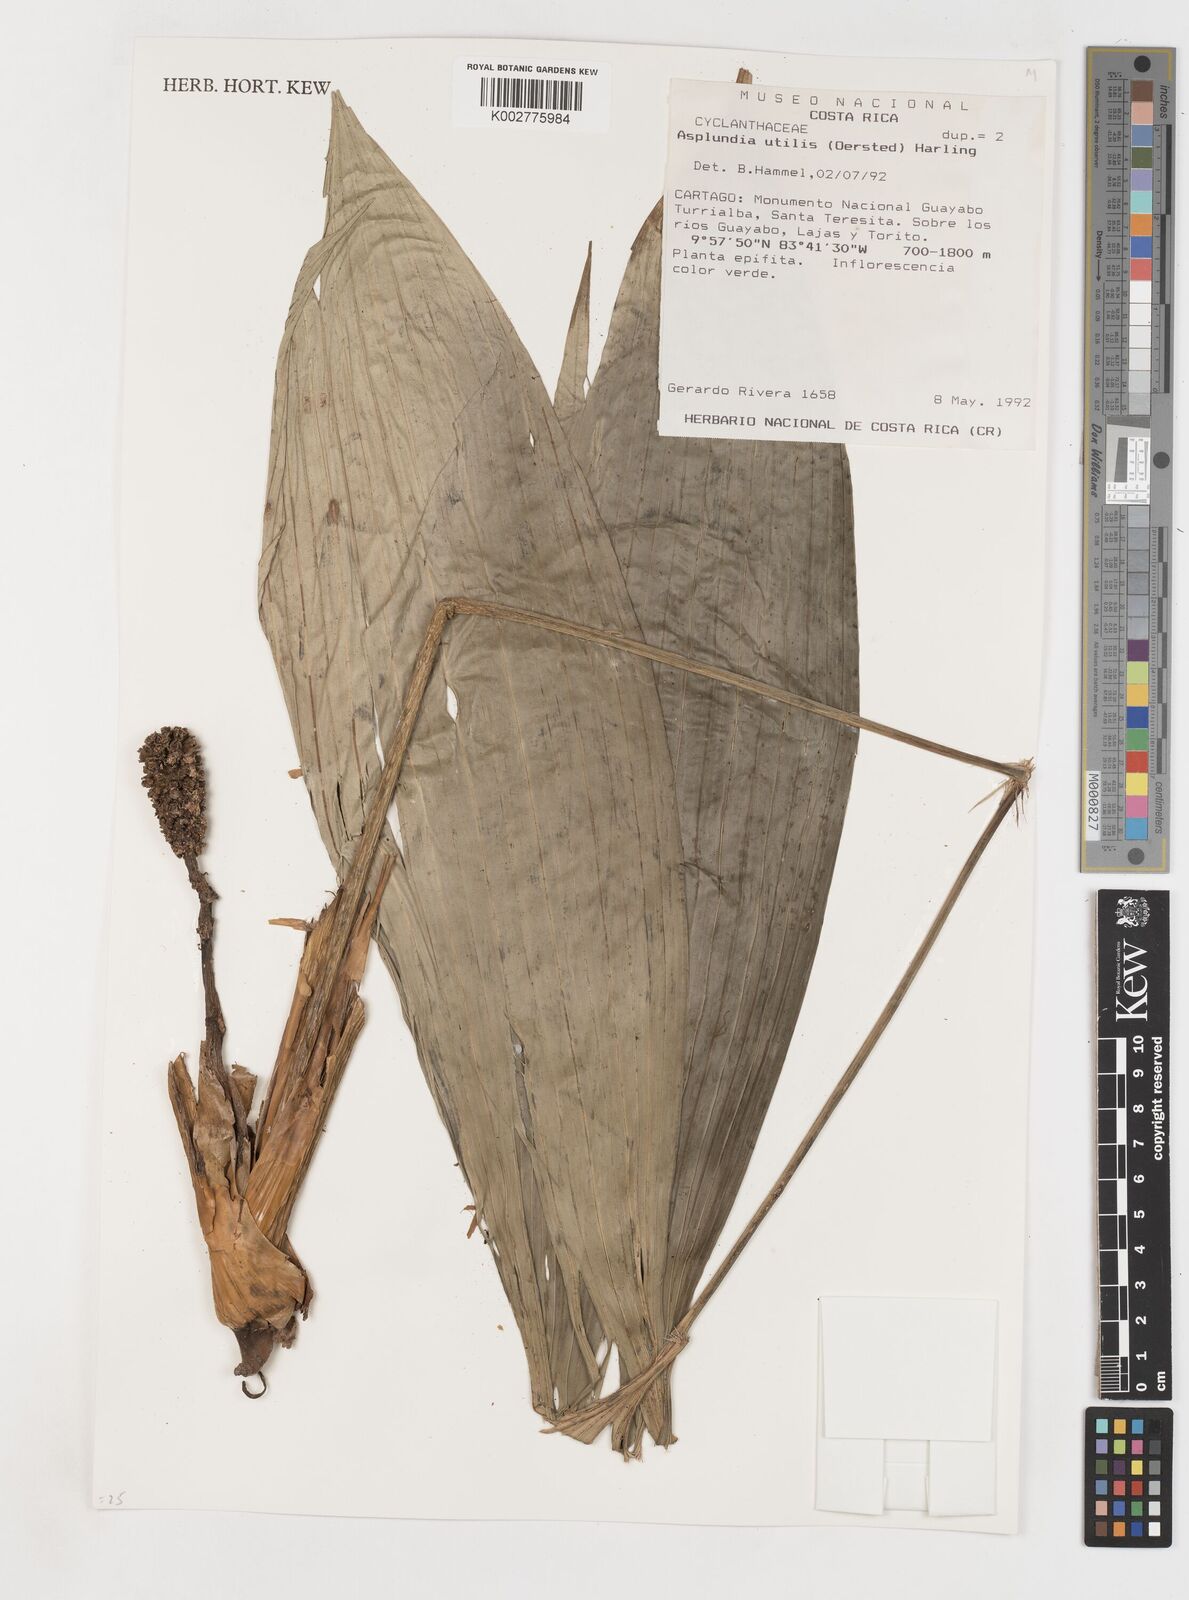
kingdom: Plantae
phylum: Tracheophyta
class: Liliopsida
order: Pandanales
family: Cyclanthaceae
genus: Asplundia
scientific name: Asplundia utilis
